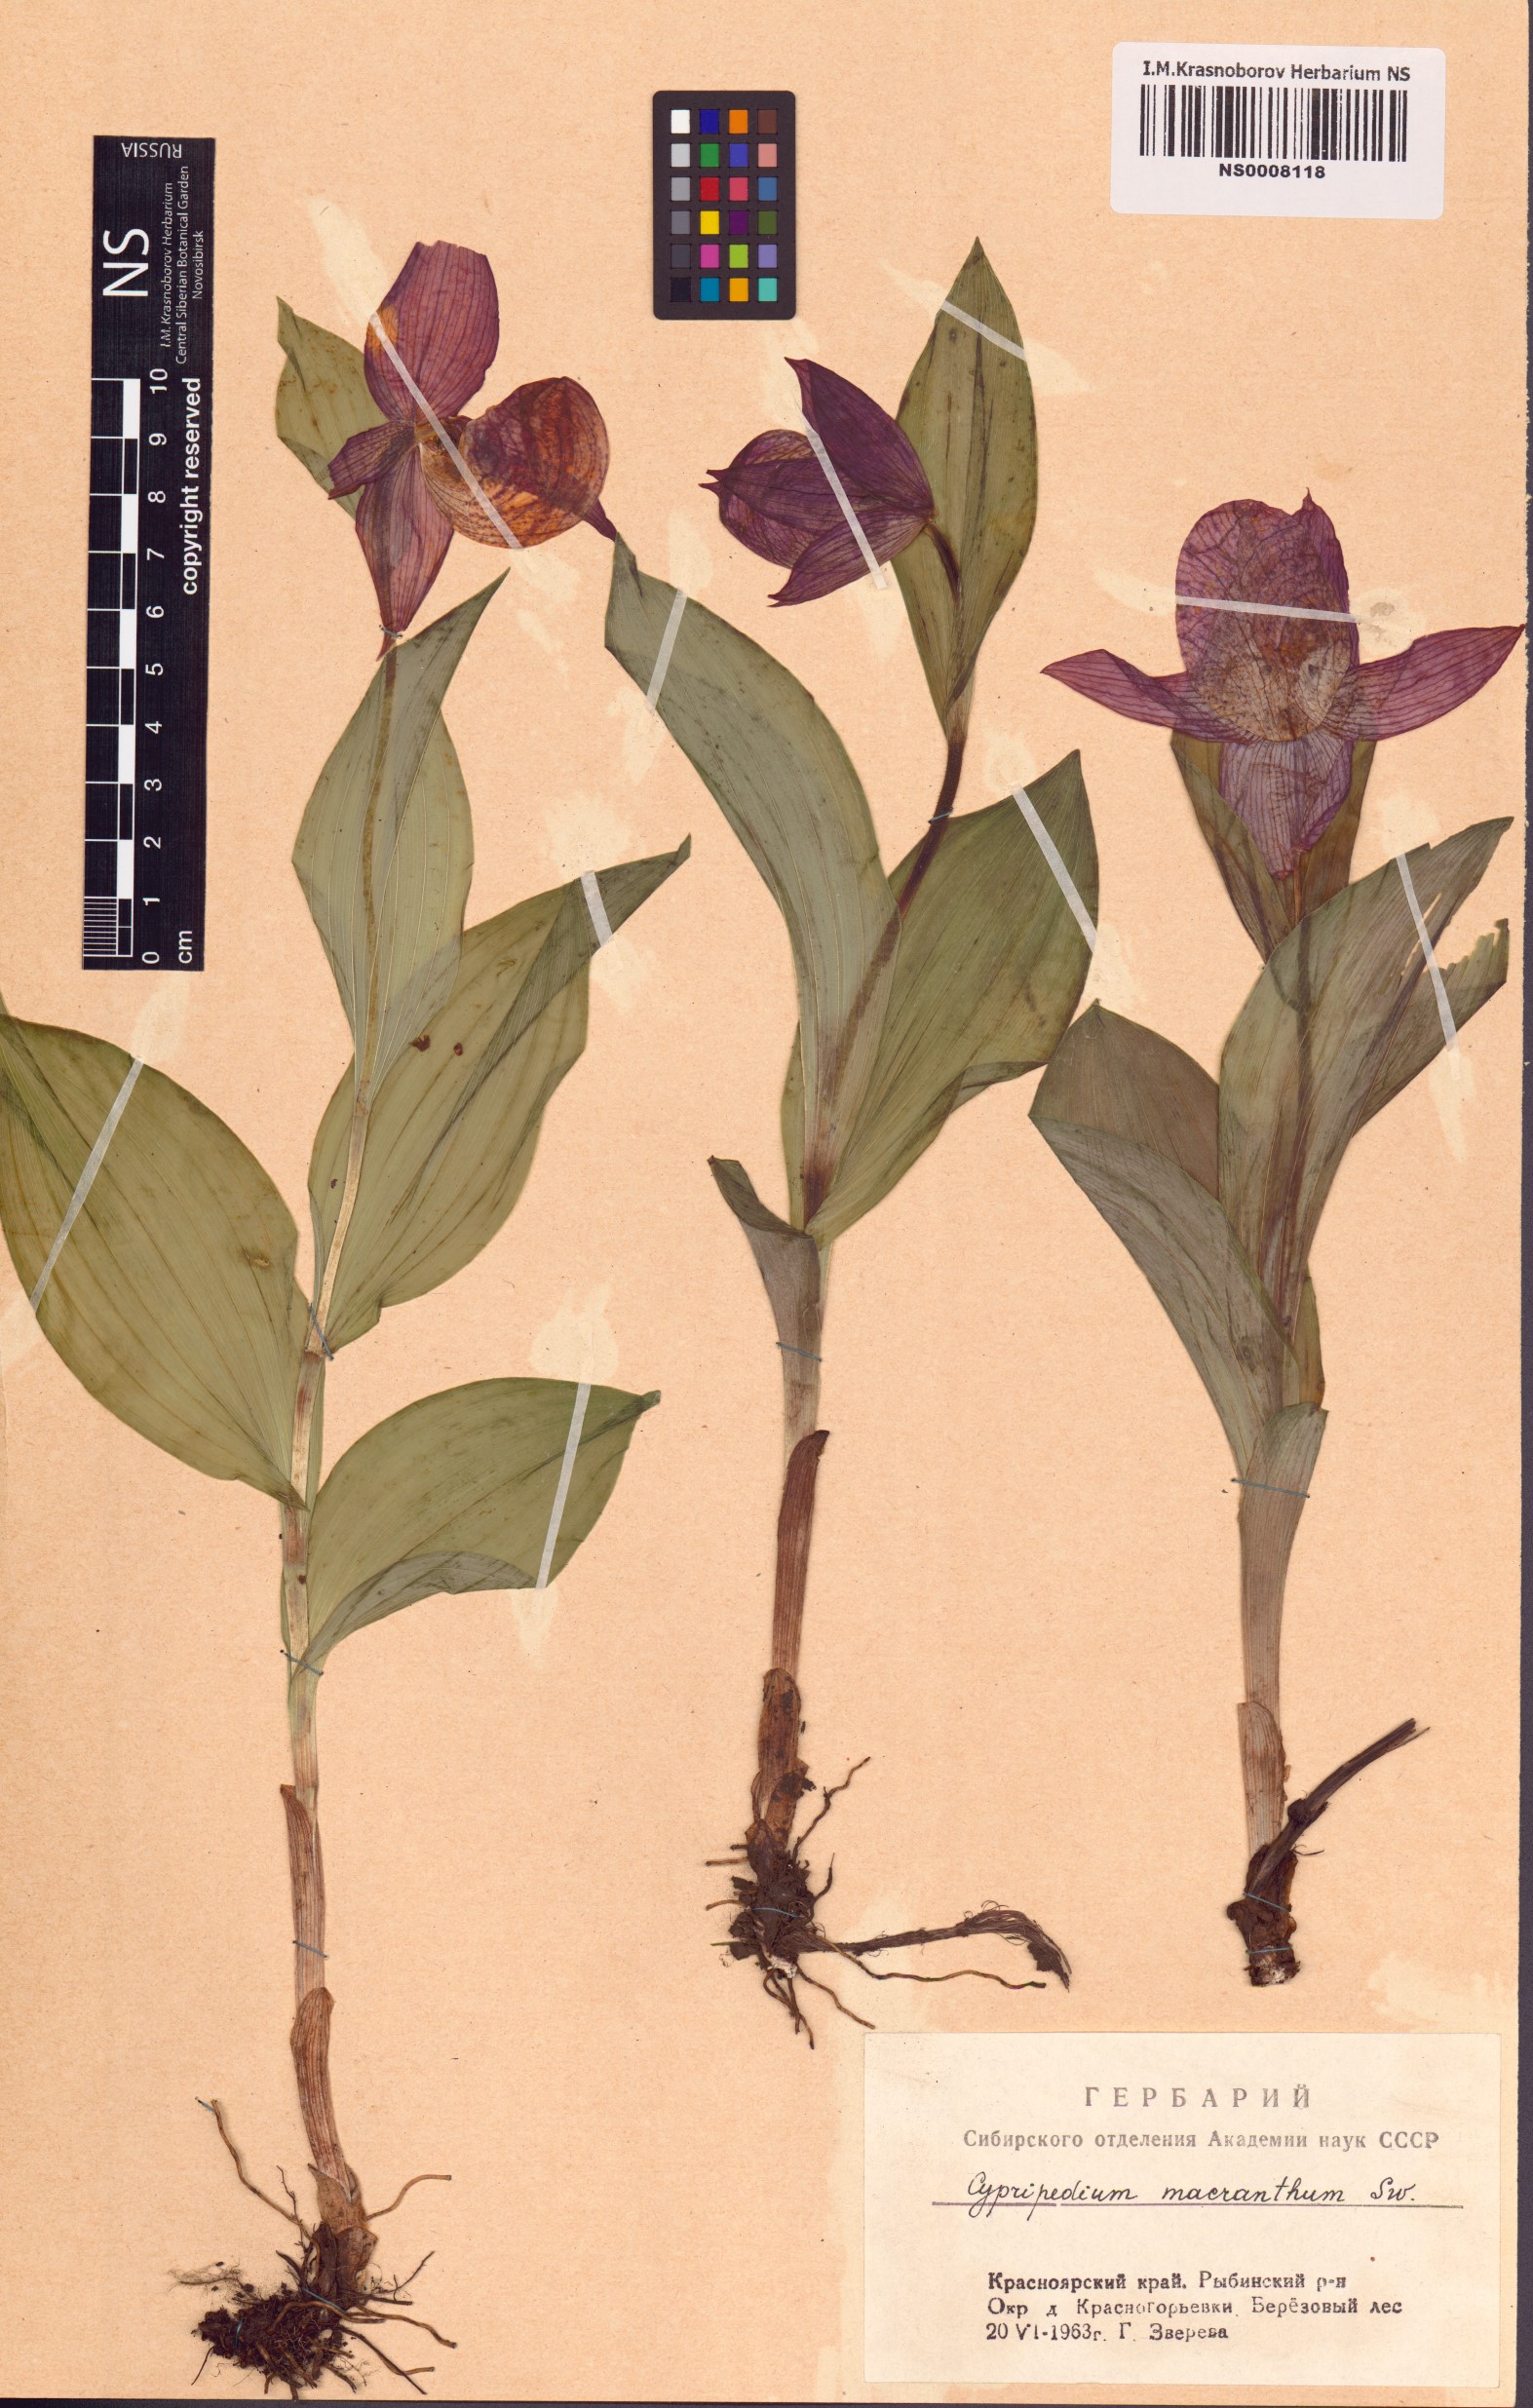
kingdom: Plantae
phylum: Tracheophyta
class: Liliopsida
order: Asparagales
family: Orchidaceae
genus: Cypripedium
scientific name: Cypripedium macranthos
